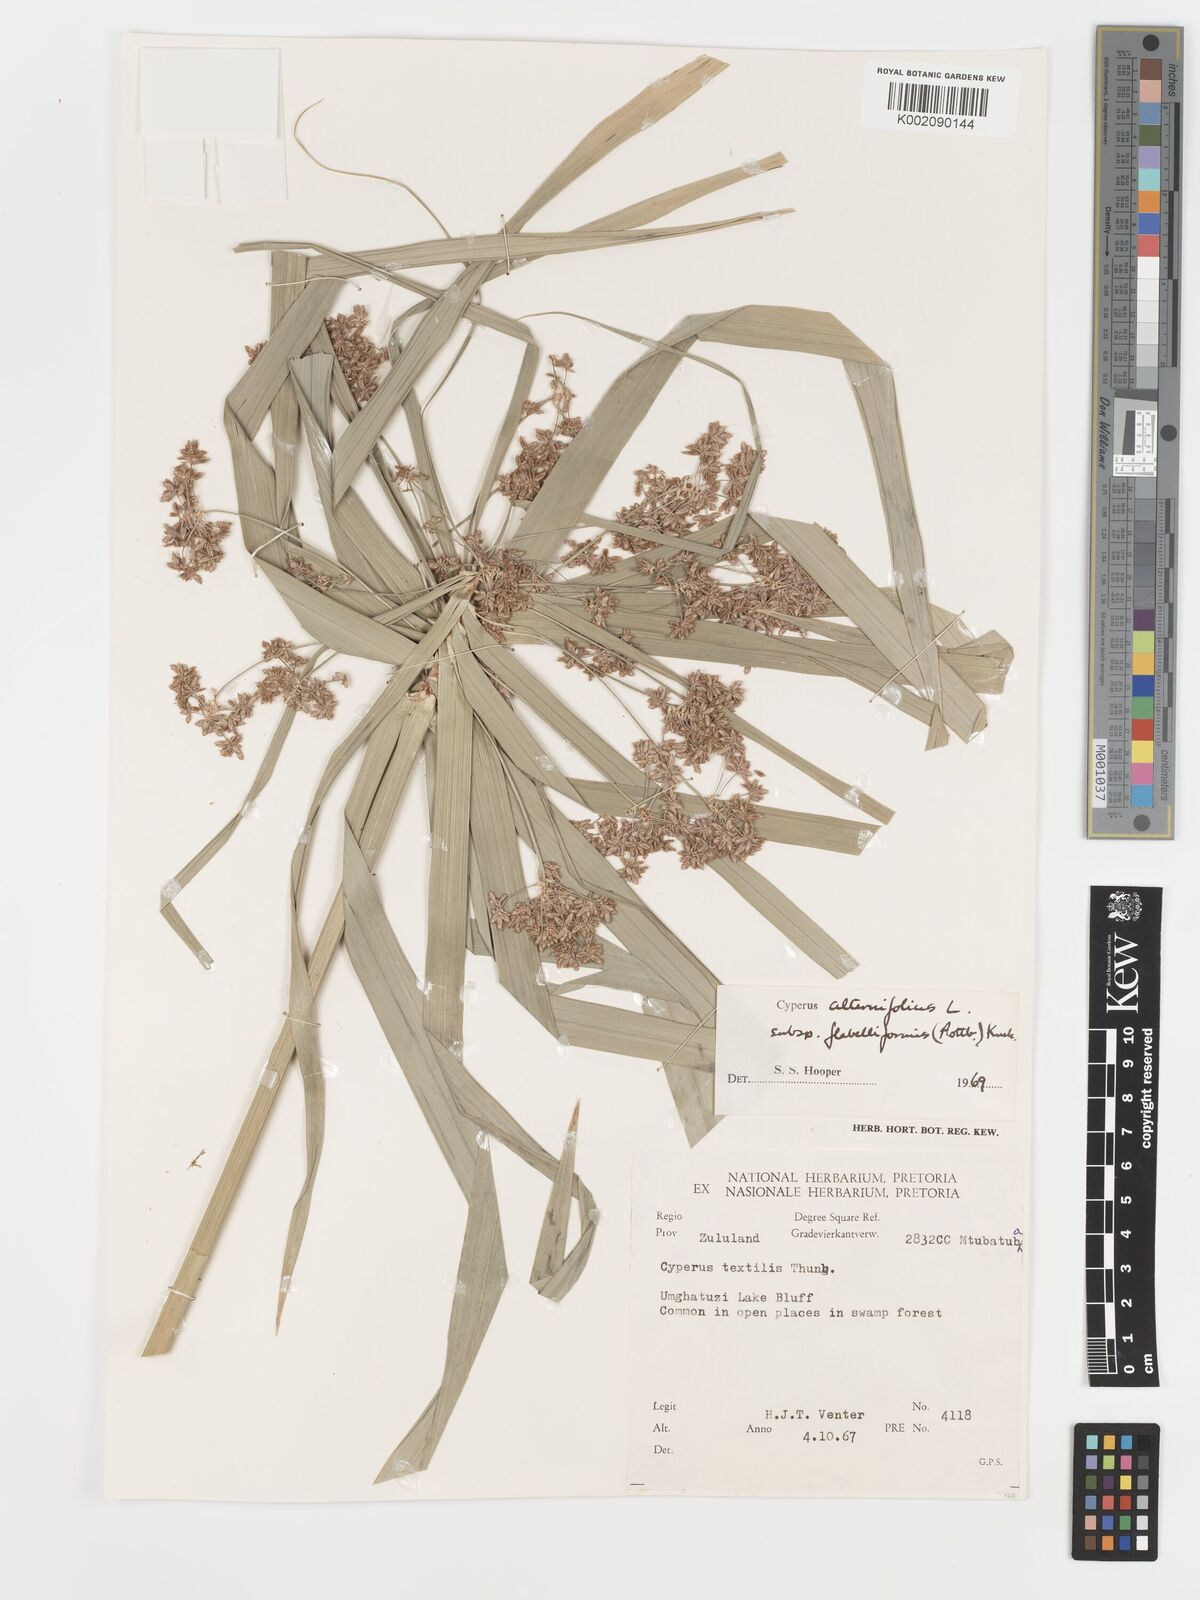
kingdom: Plantae
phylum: Tracheophyta
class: Liliopsida
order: Poales
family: Cyperaceae
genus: Cyperus
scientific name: Cyperus alternifolius
